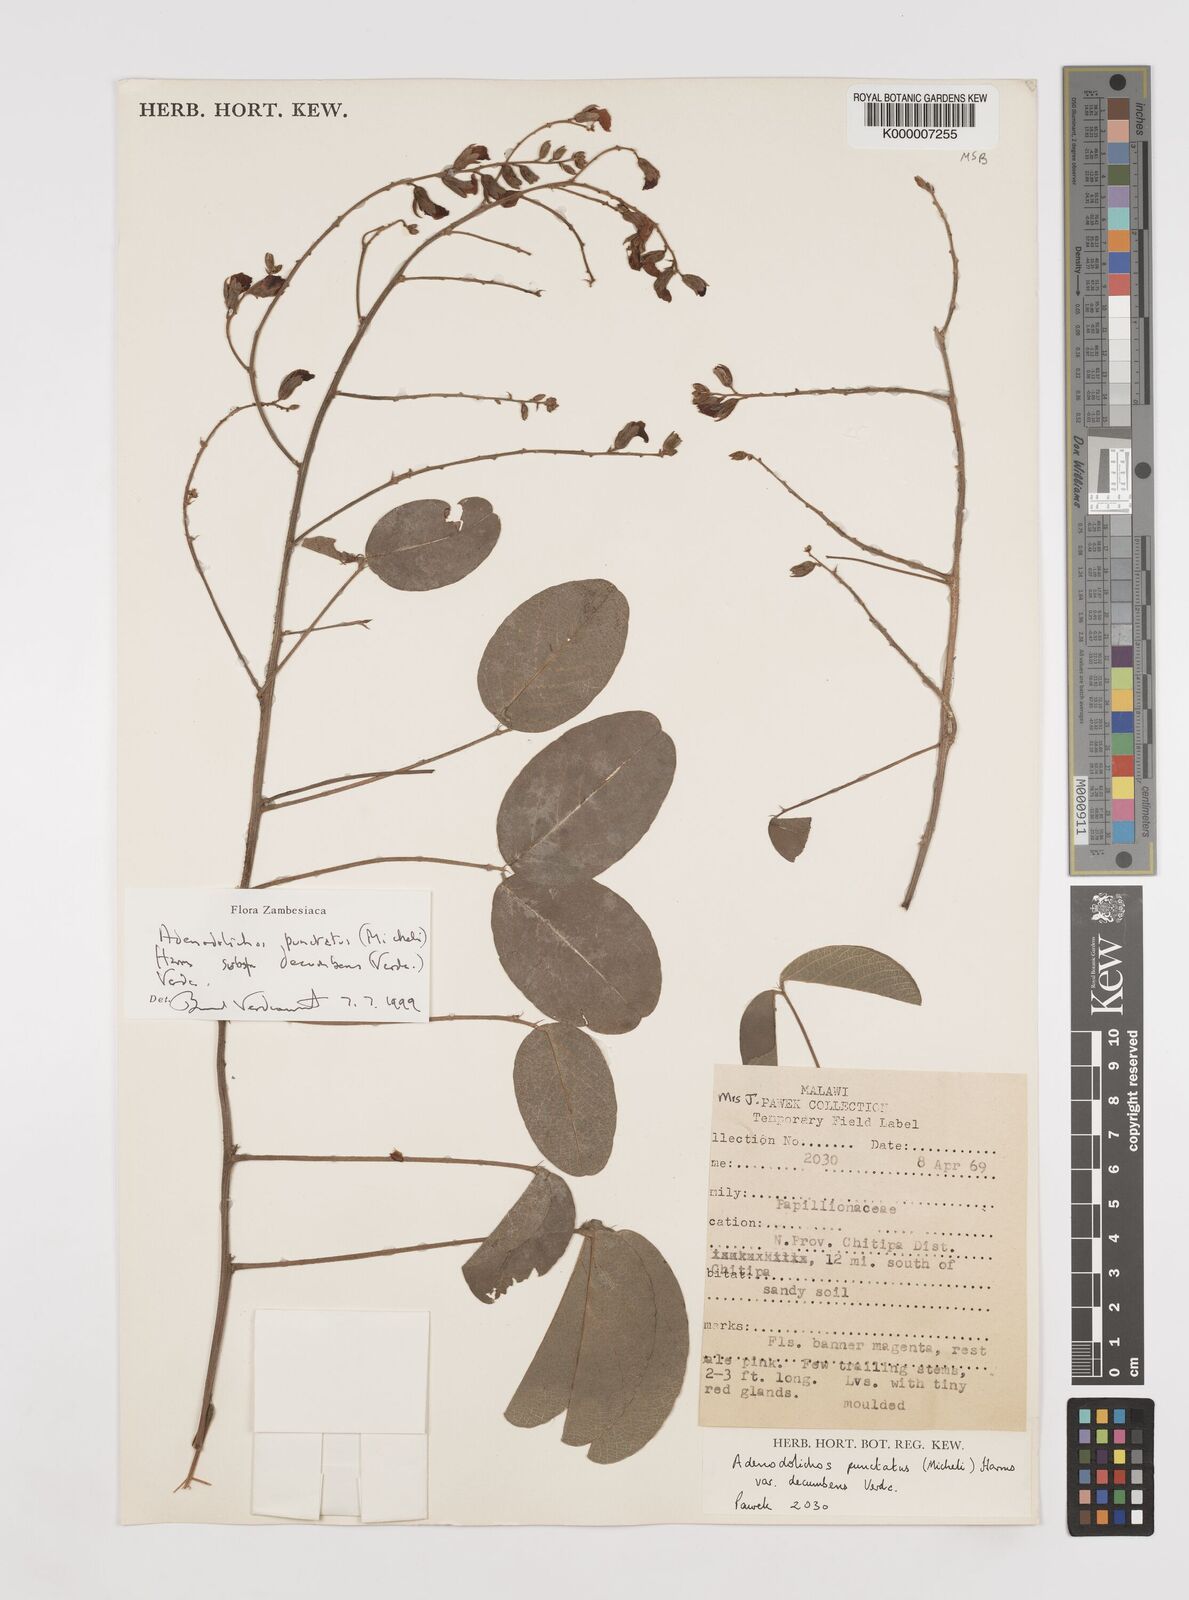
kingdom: Plantae
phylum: Tracheophyta
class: Magnoliopsida
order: Fabales
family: Fabaceae
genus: Adenodolichos
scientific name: Adenodolichos punctatus
